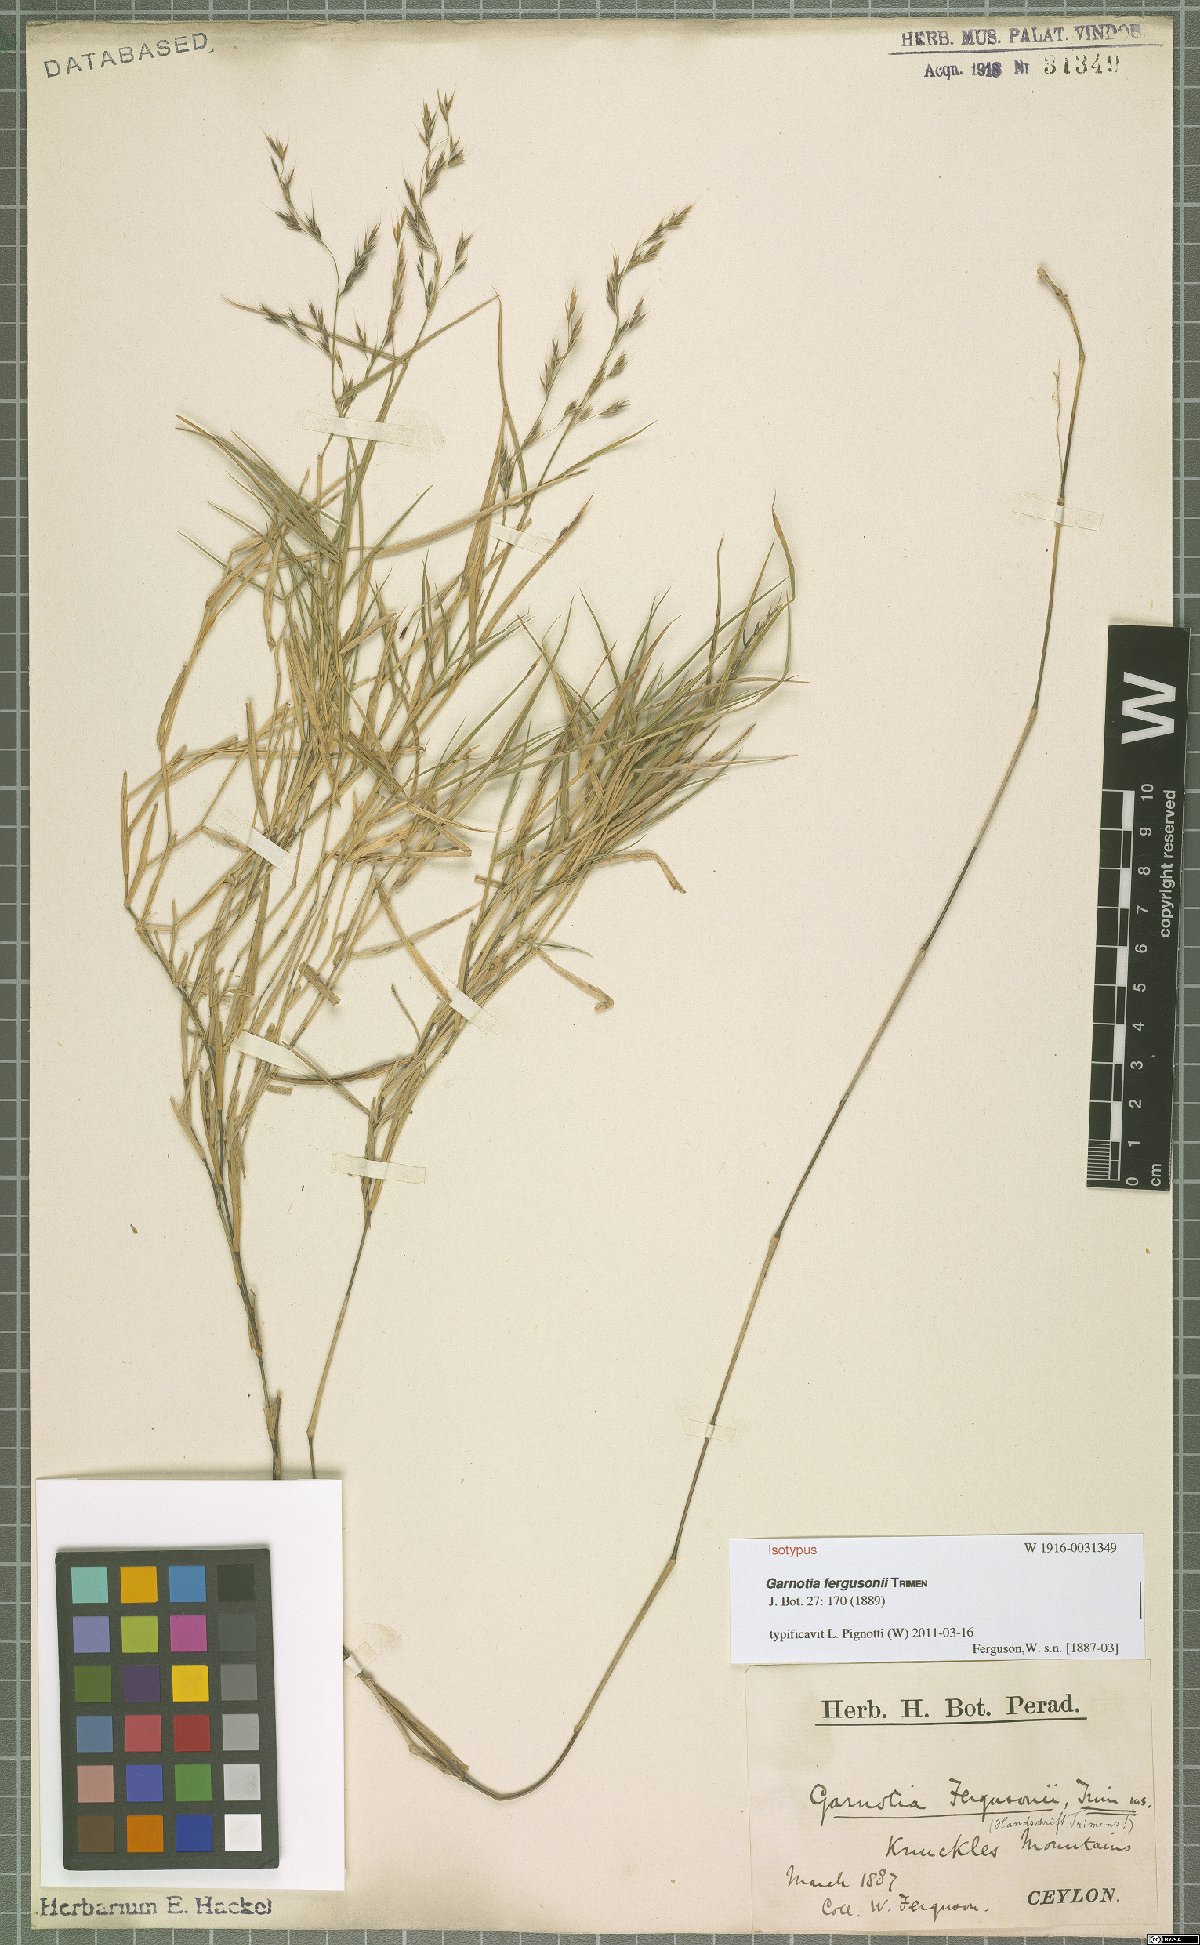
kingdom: Plantae
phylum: Tracheophyta
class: Liliopsida
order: Poales
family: Poaceae
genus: Garnotia
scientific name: Garnotia fergusonii
